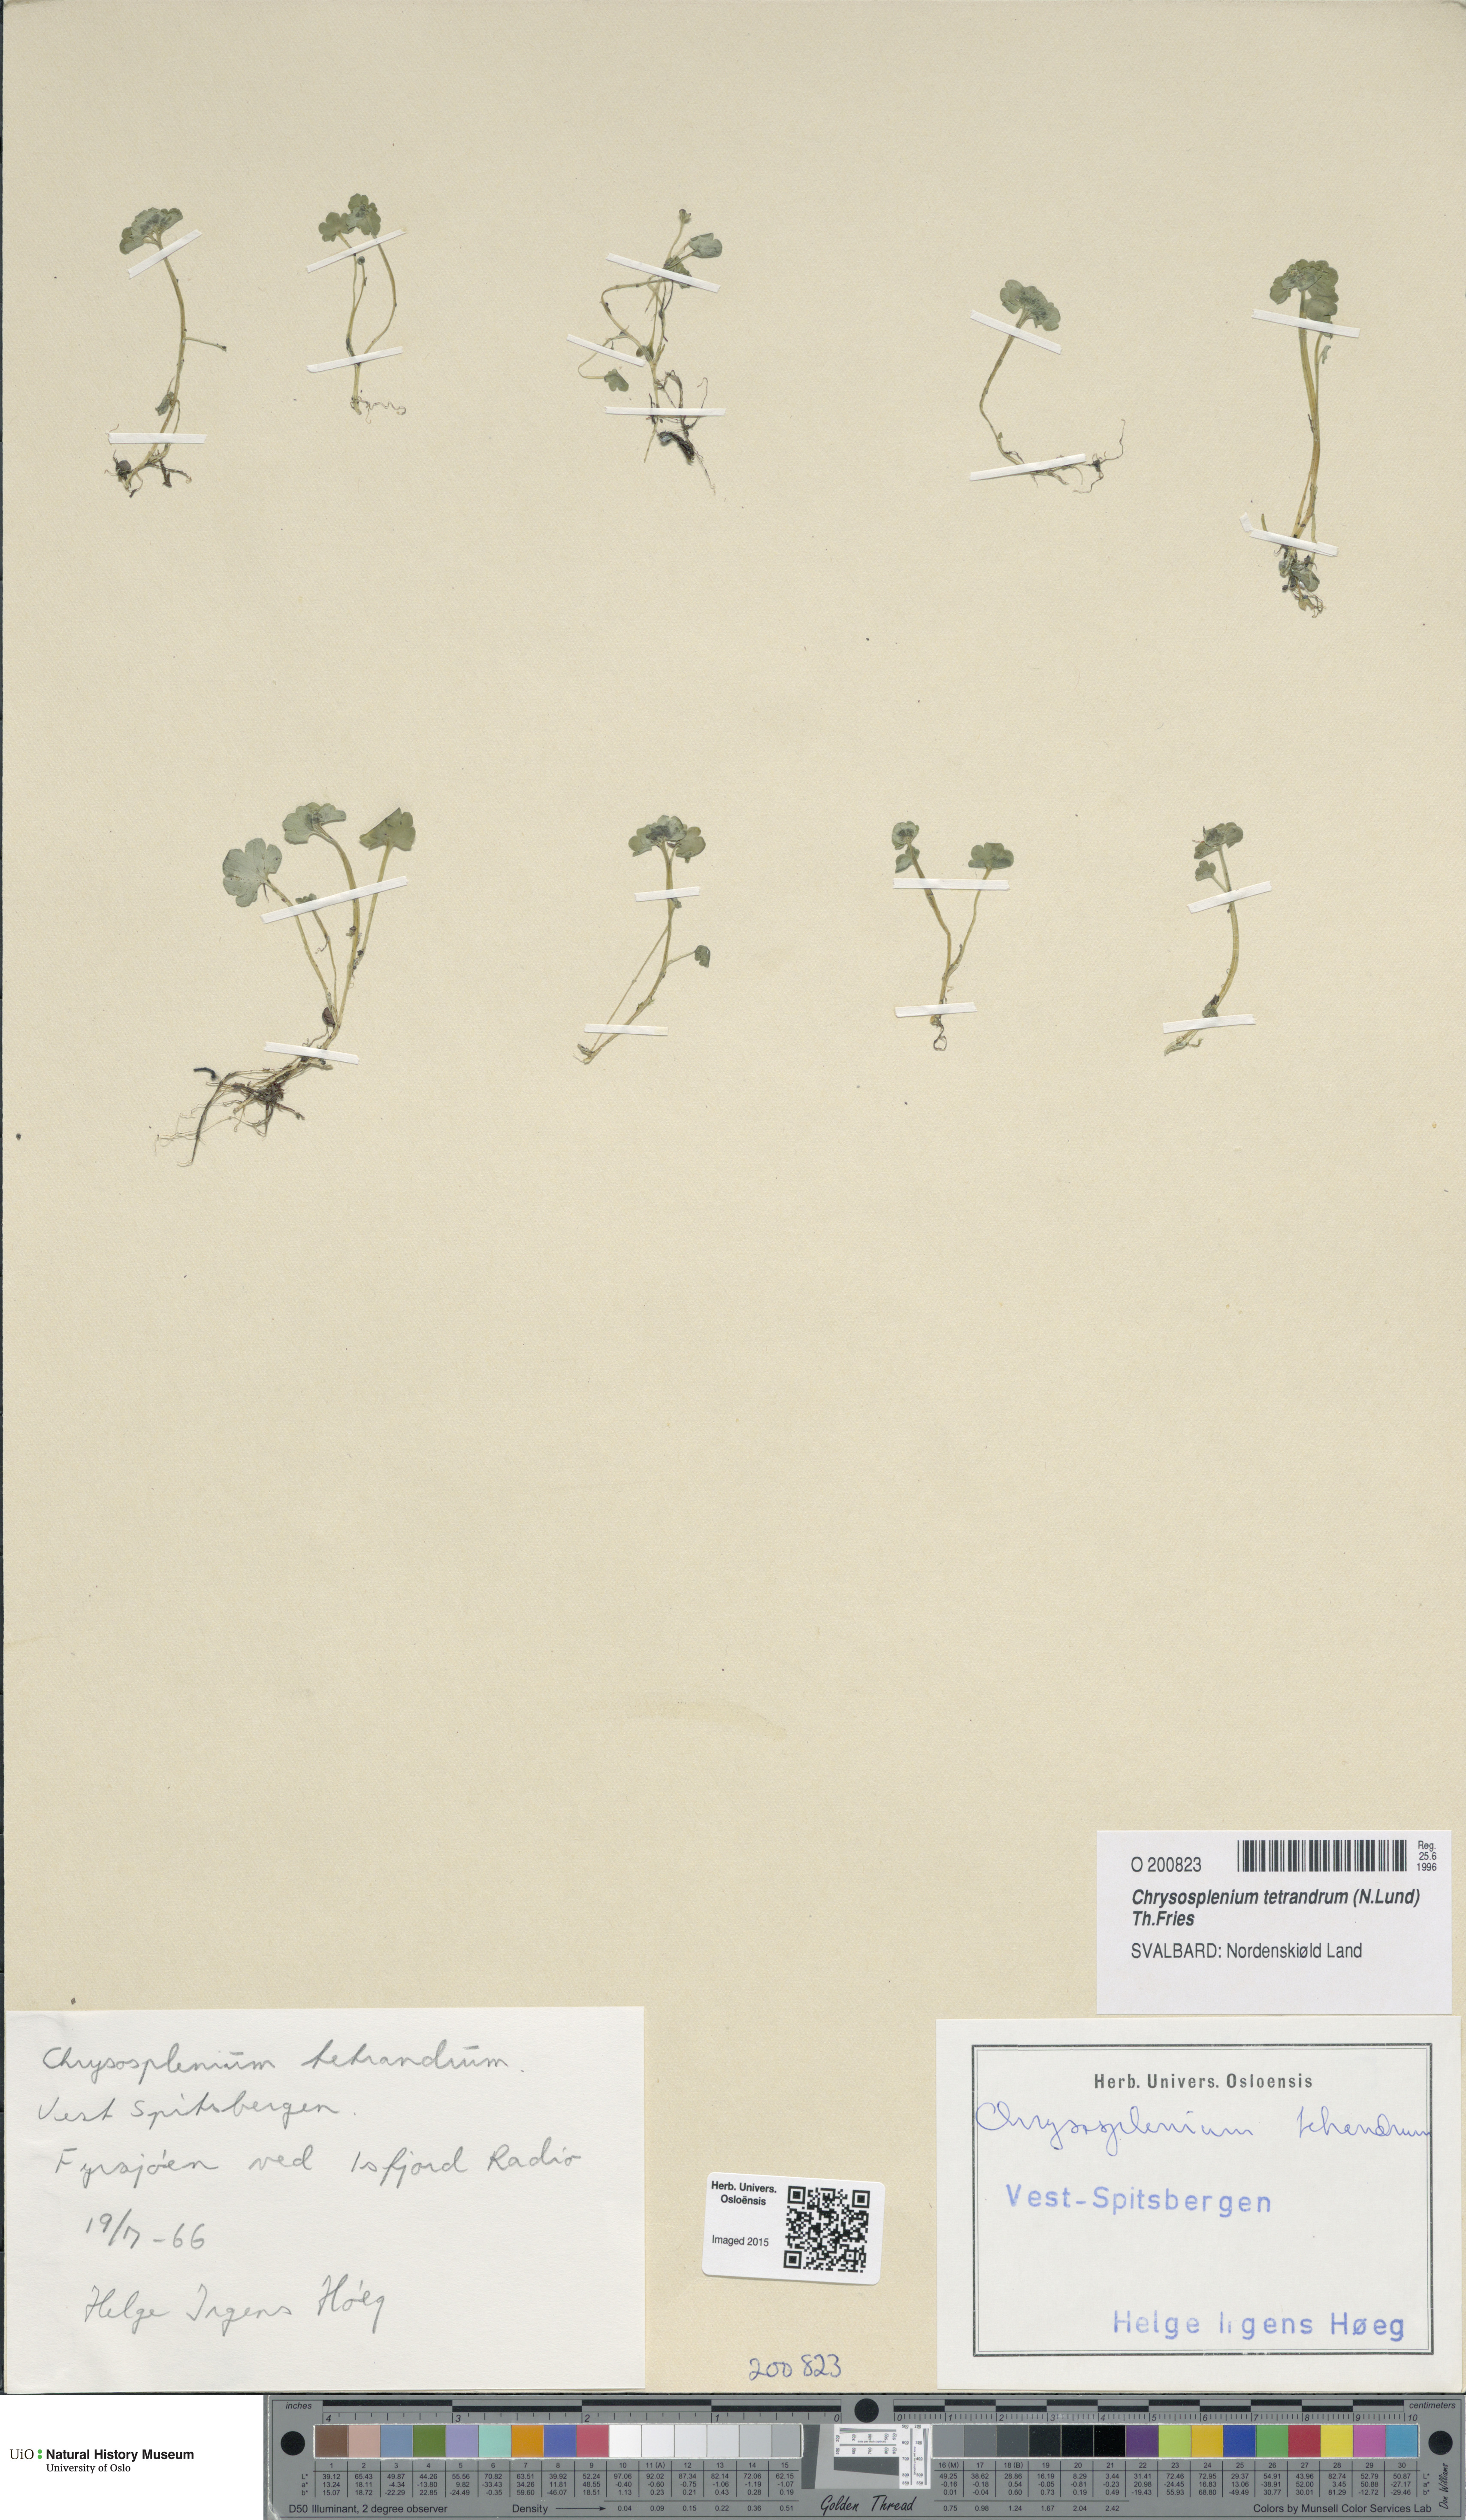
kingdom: Plantae
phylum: Tracheophyta
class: Magnoliopsida
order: Saxifragales
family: Saxifragaceae
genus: Chrysosplenium
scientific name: Chrysosplenium tetrandrum
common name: Green saxifrage
